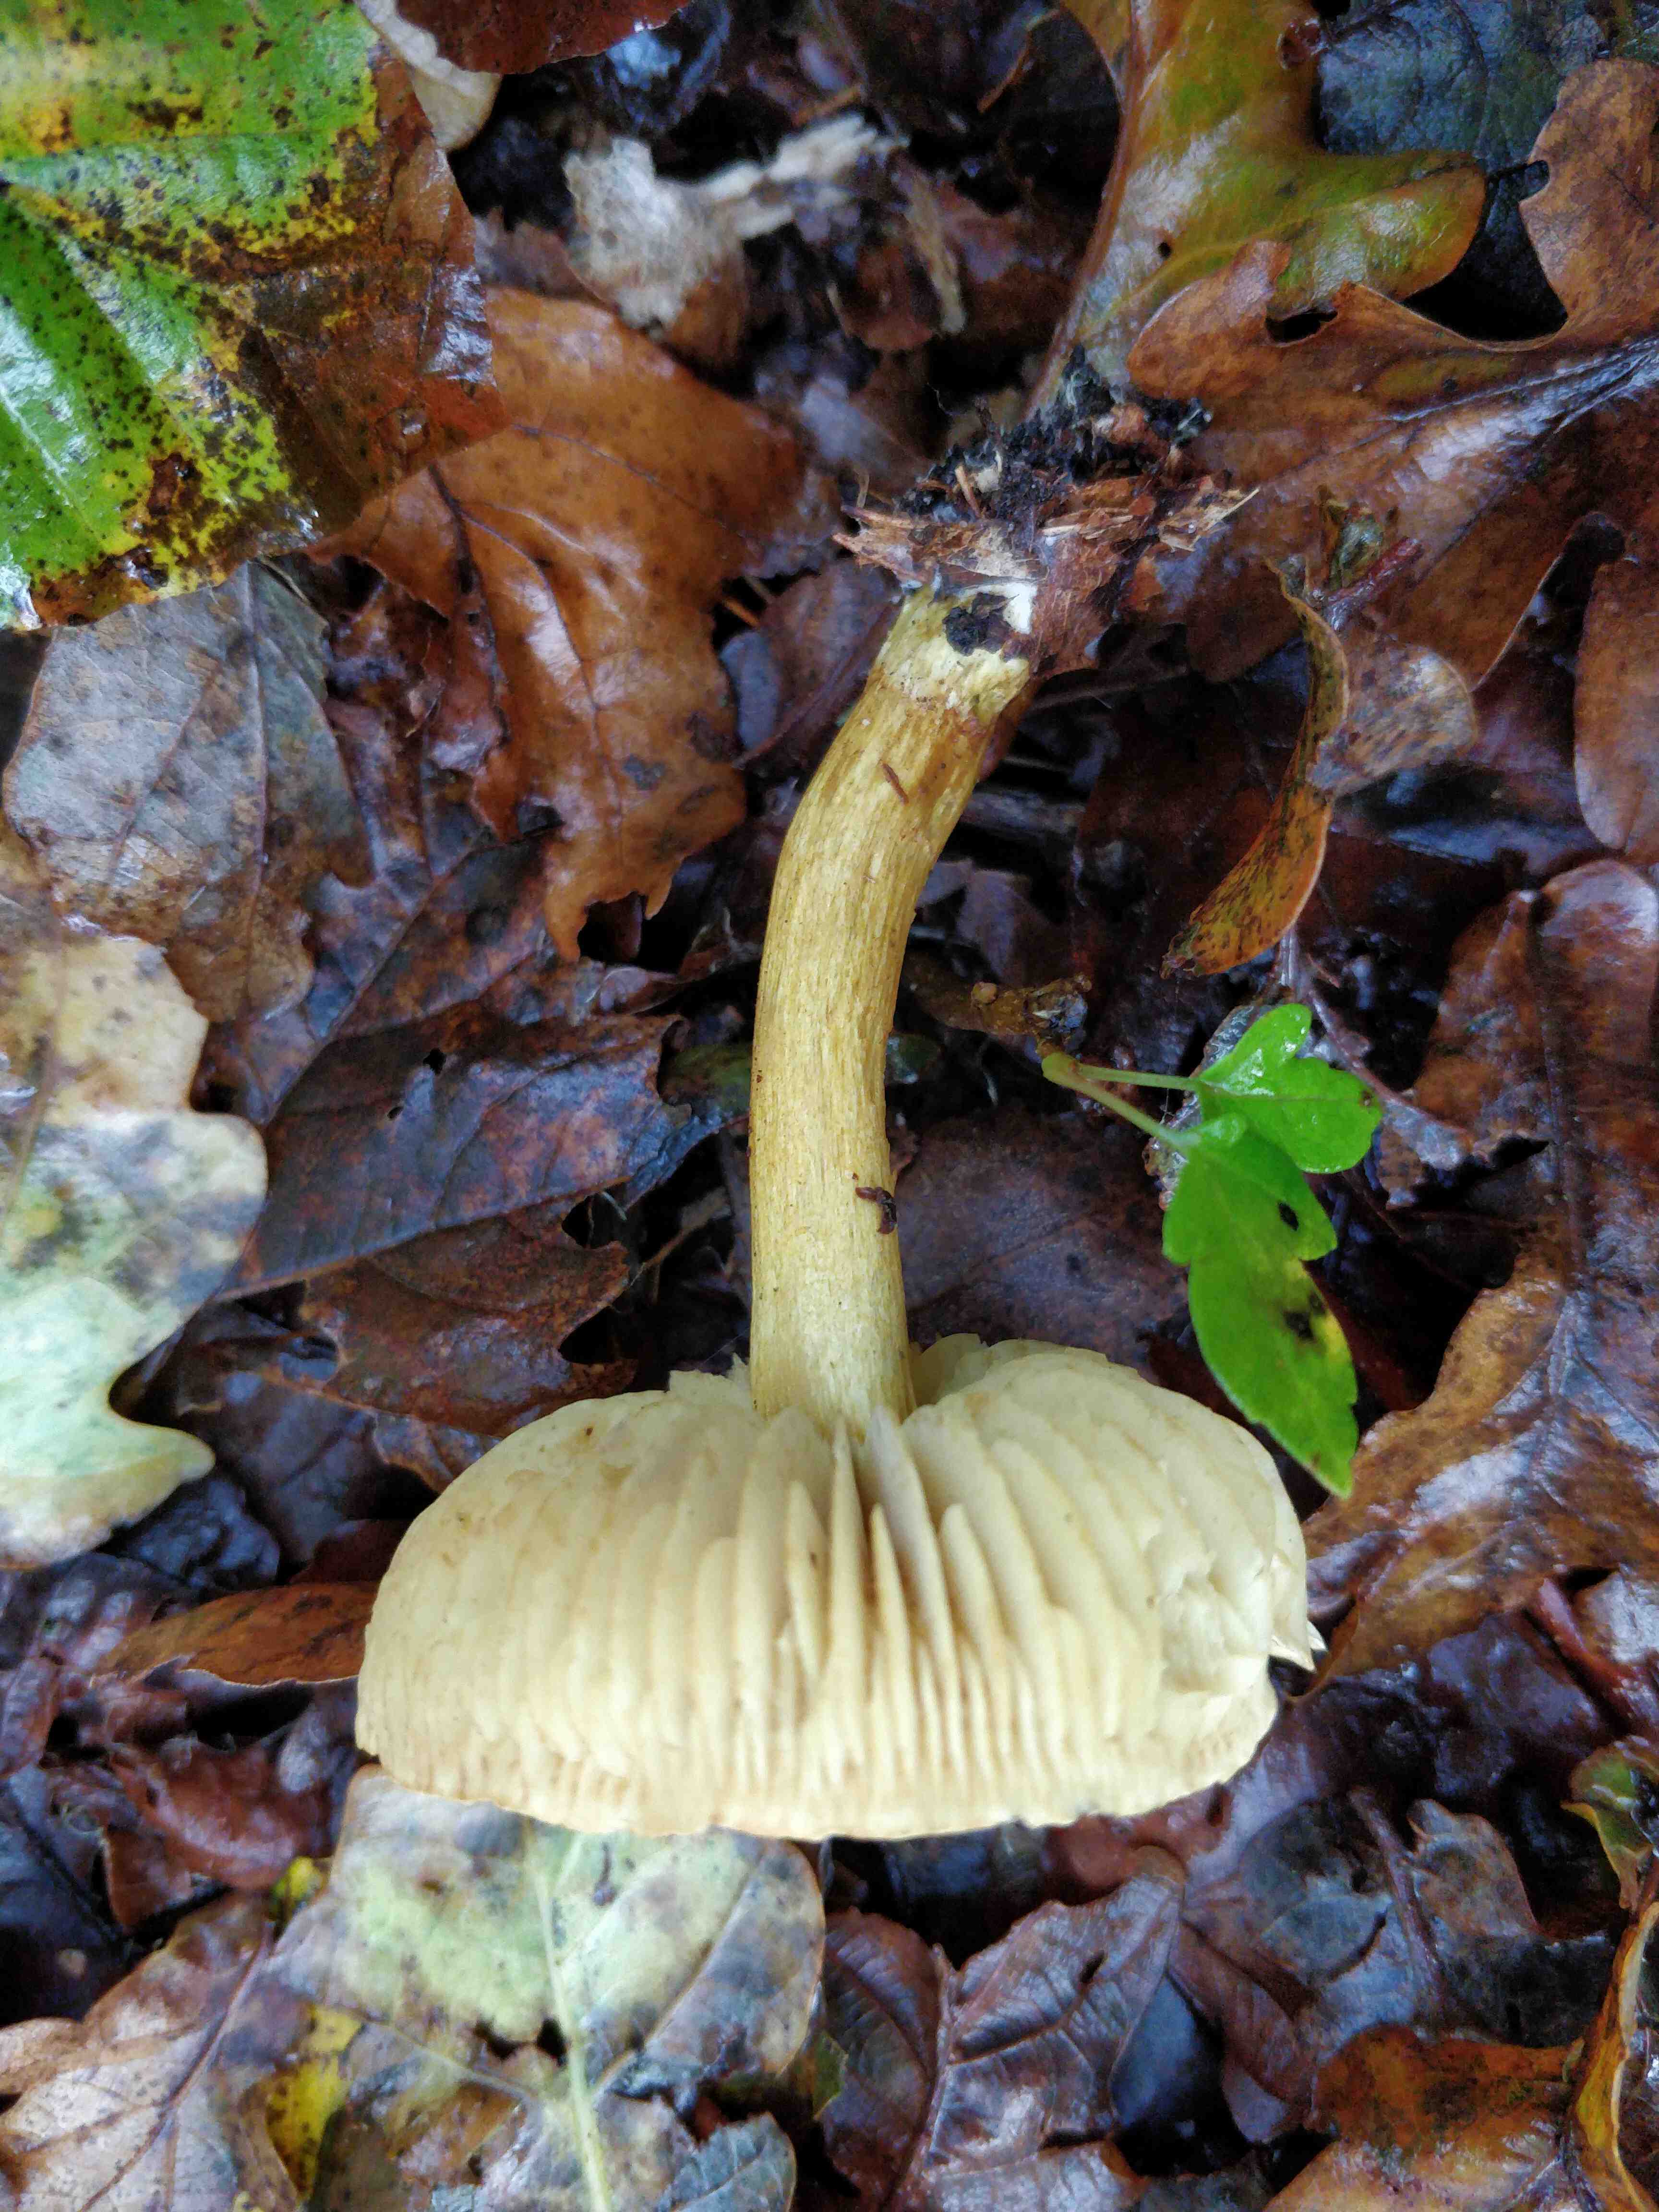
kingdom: Fungi
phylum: Basidiomycota
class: Agaricomycetes
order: Agaricales
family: Tricholomataceae
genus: Tricholoma
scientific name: Tricholoma sulphureum
